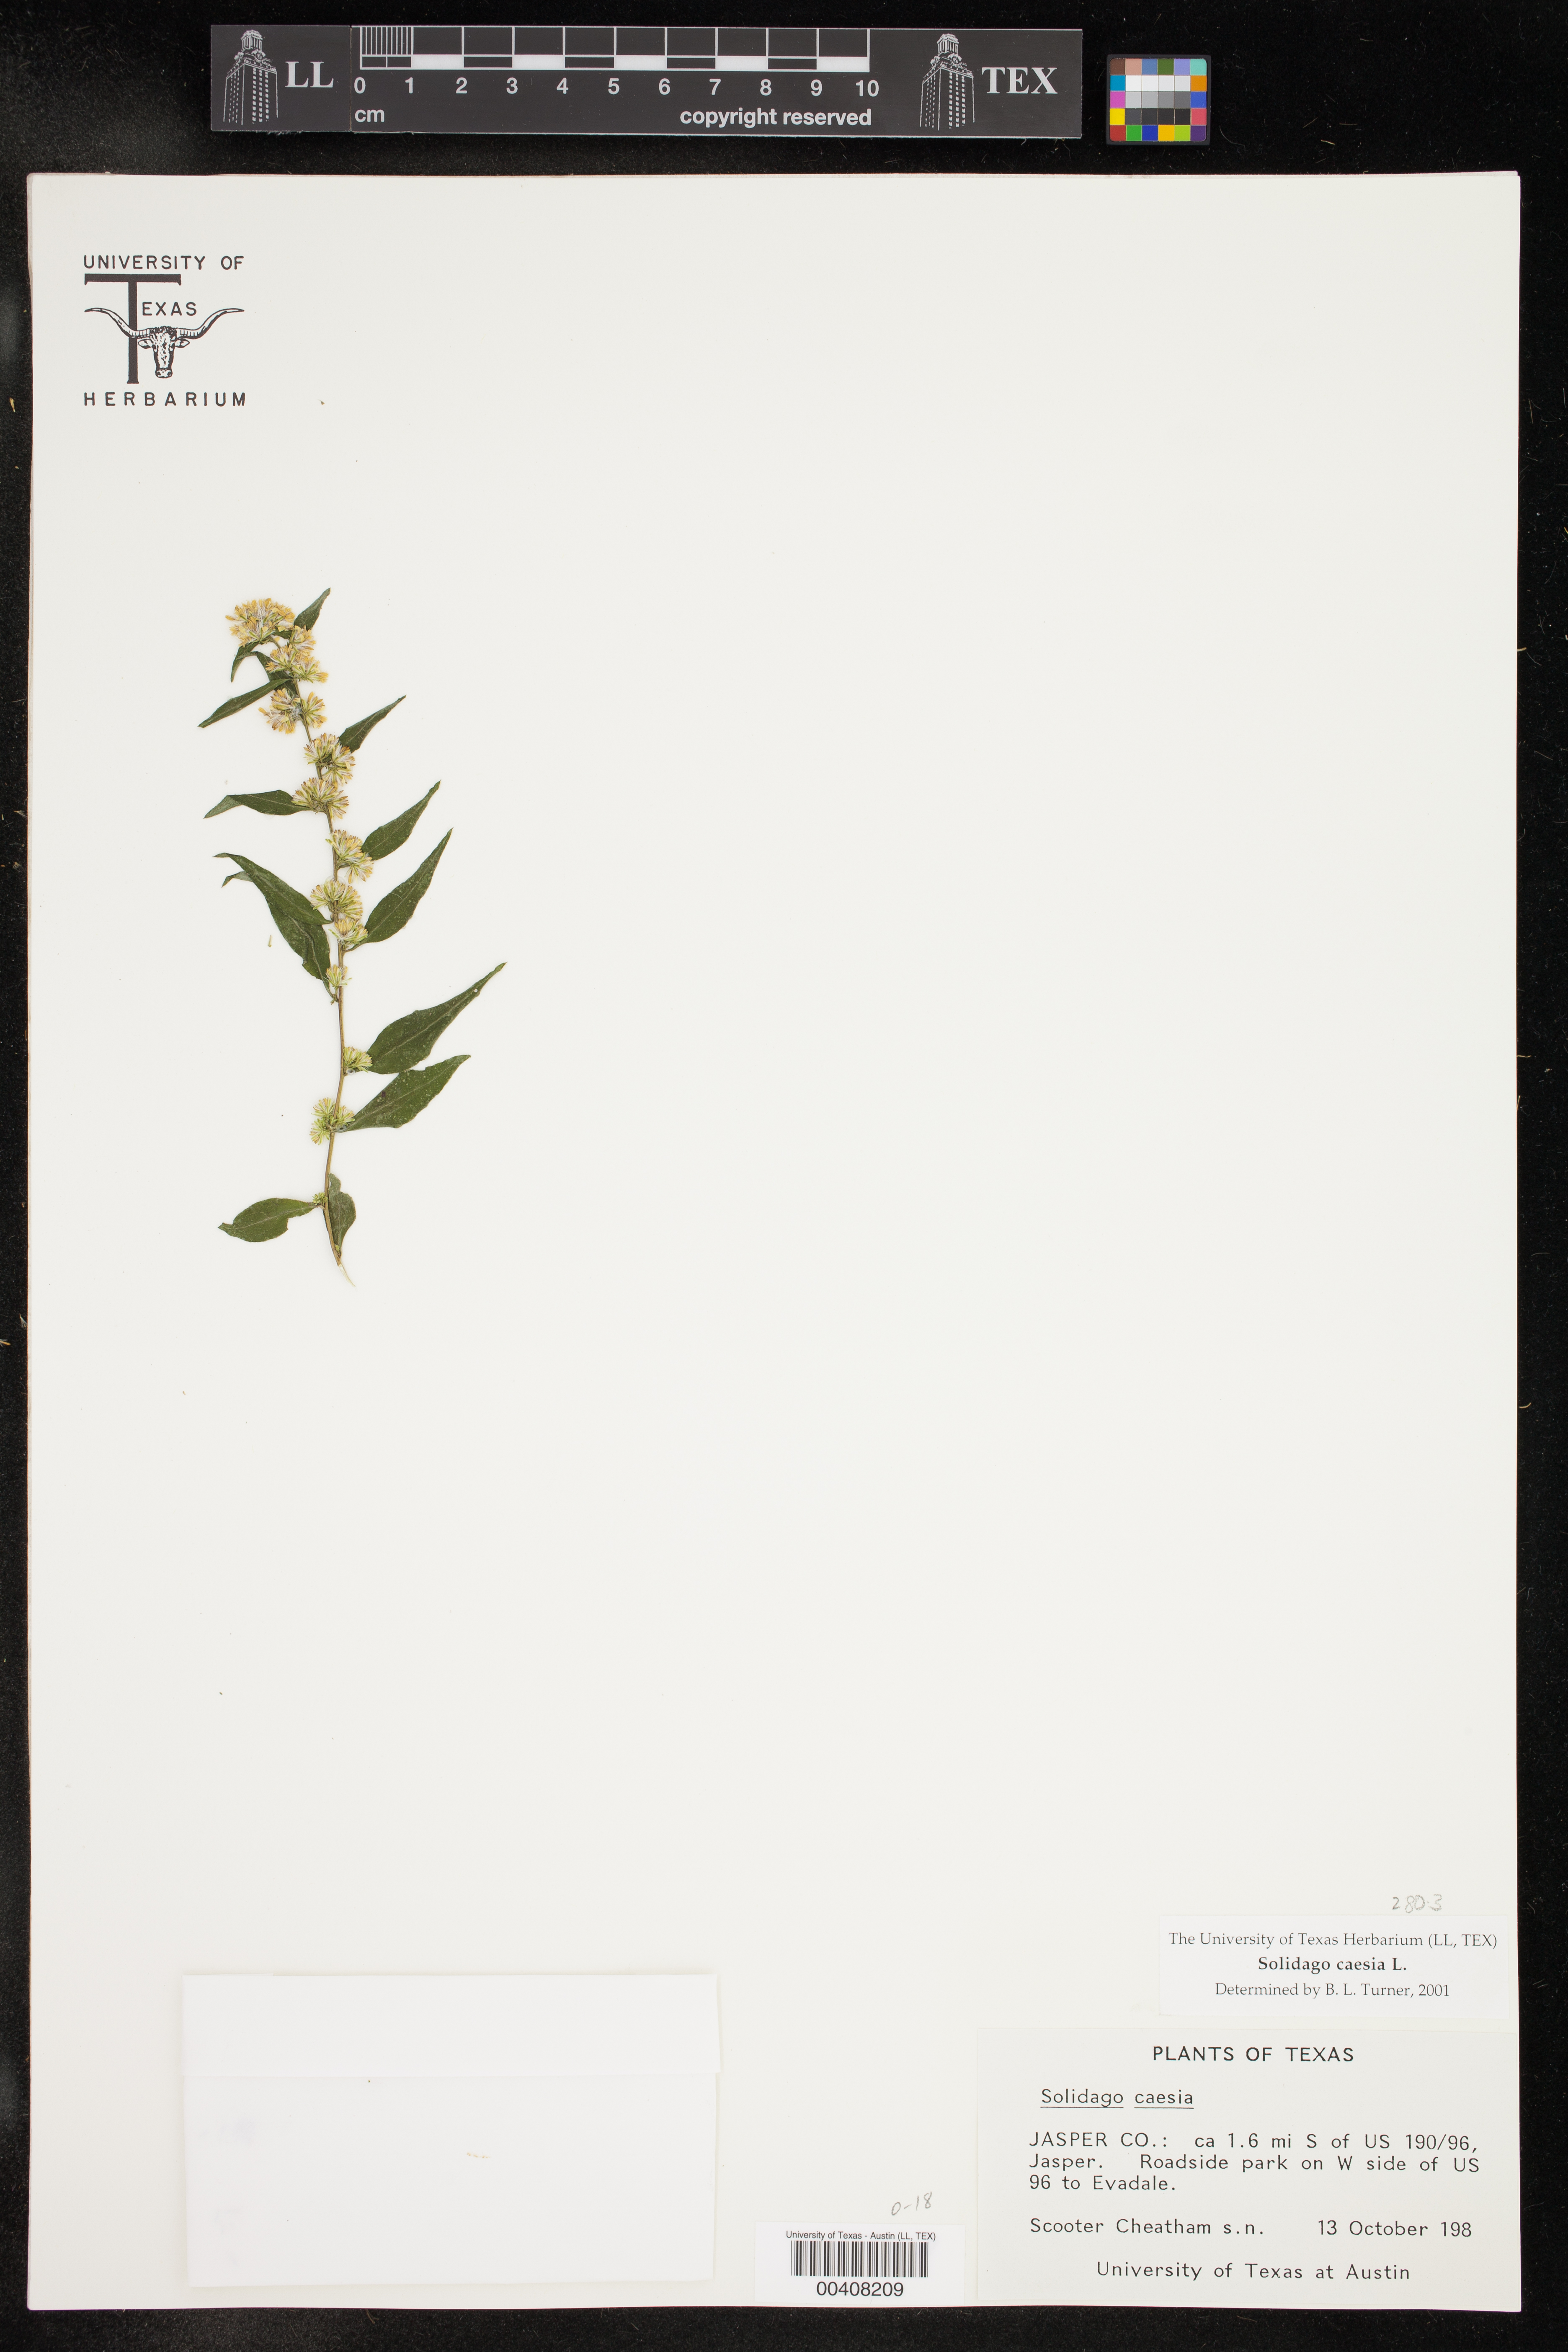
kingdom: Plantae
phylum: Tracheophyta
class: Magnoliopsida
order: Asterales
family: Asteraceae
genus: Solidago
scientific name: Solidago caesia
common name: Woodland goldenrod
